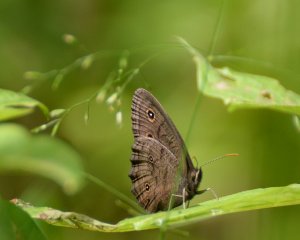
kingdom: Animalia
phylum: Arthropoda
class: Insecta
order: Lepidoptera
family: Nymphalidae
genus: Cercyonis
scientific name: Cercyonis pegala
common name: Common Wood-Nymph
